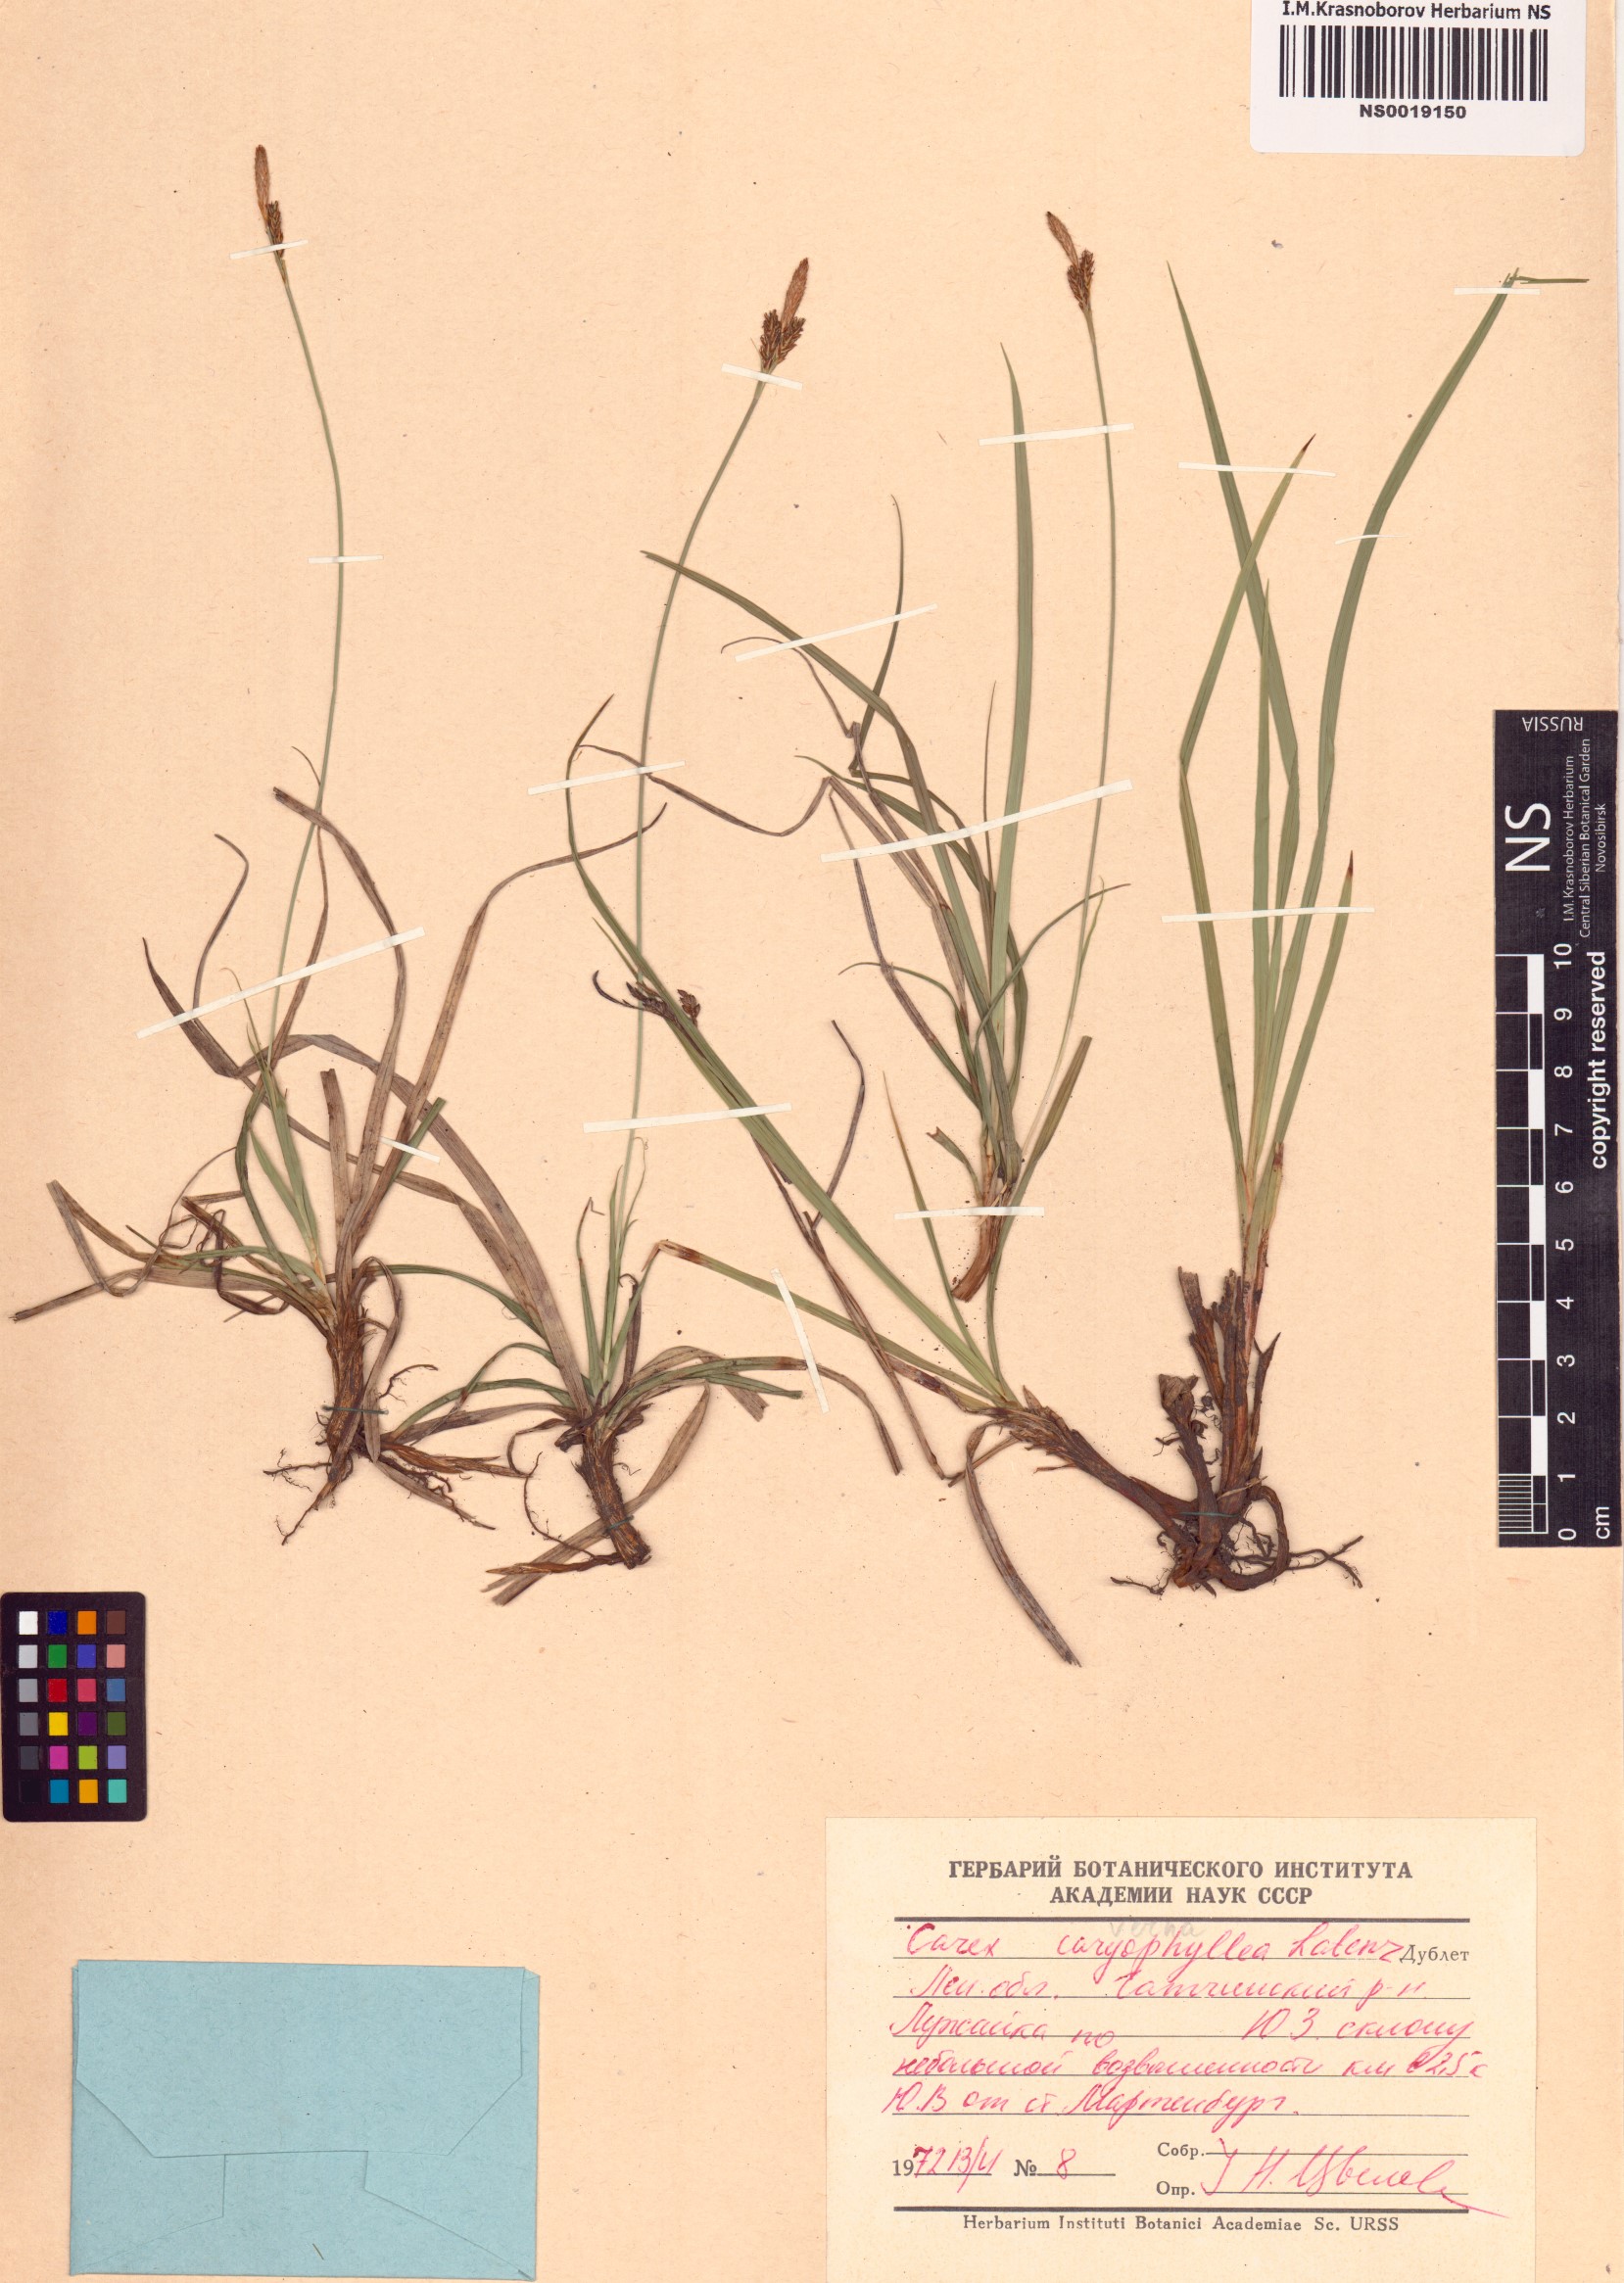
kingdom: Plantae
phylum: Tracheophyta
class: Liliopsida
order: Poales
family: Cyperaceae
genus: Carex
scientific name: Carex caryophyllea
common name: Spring sedge
